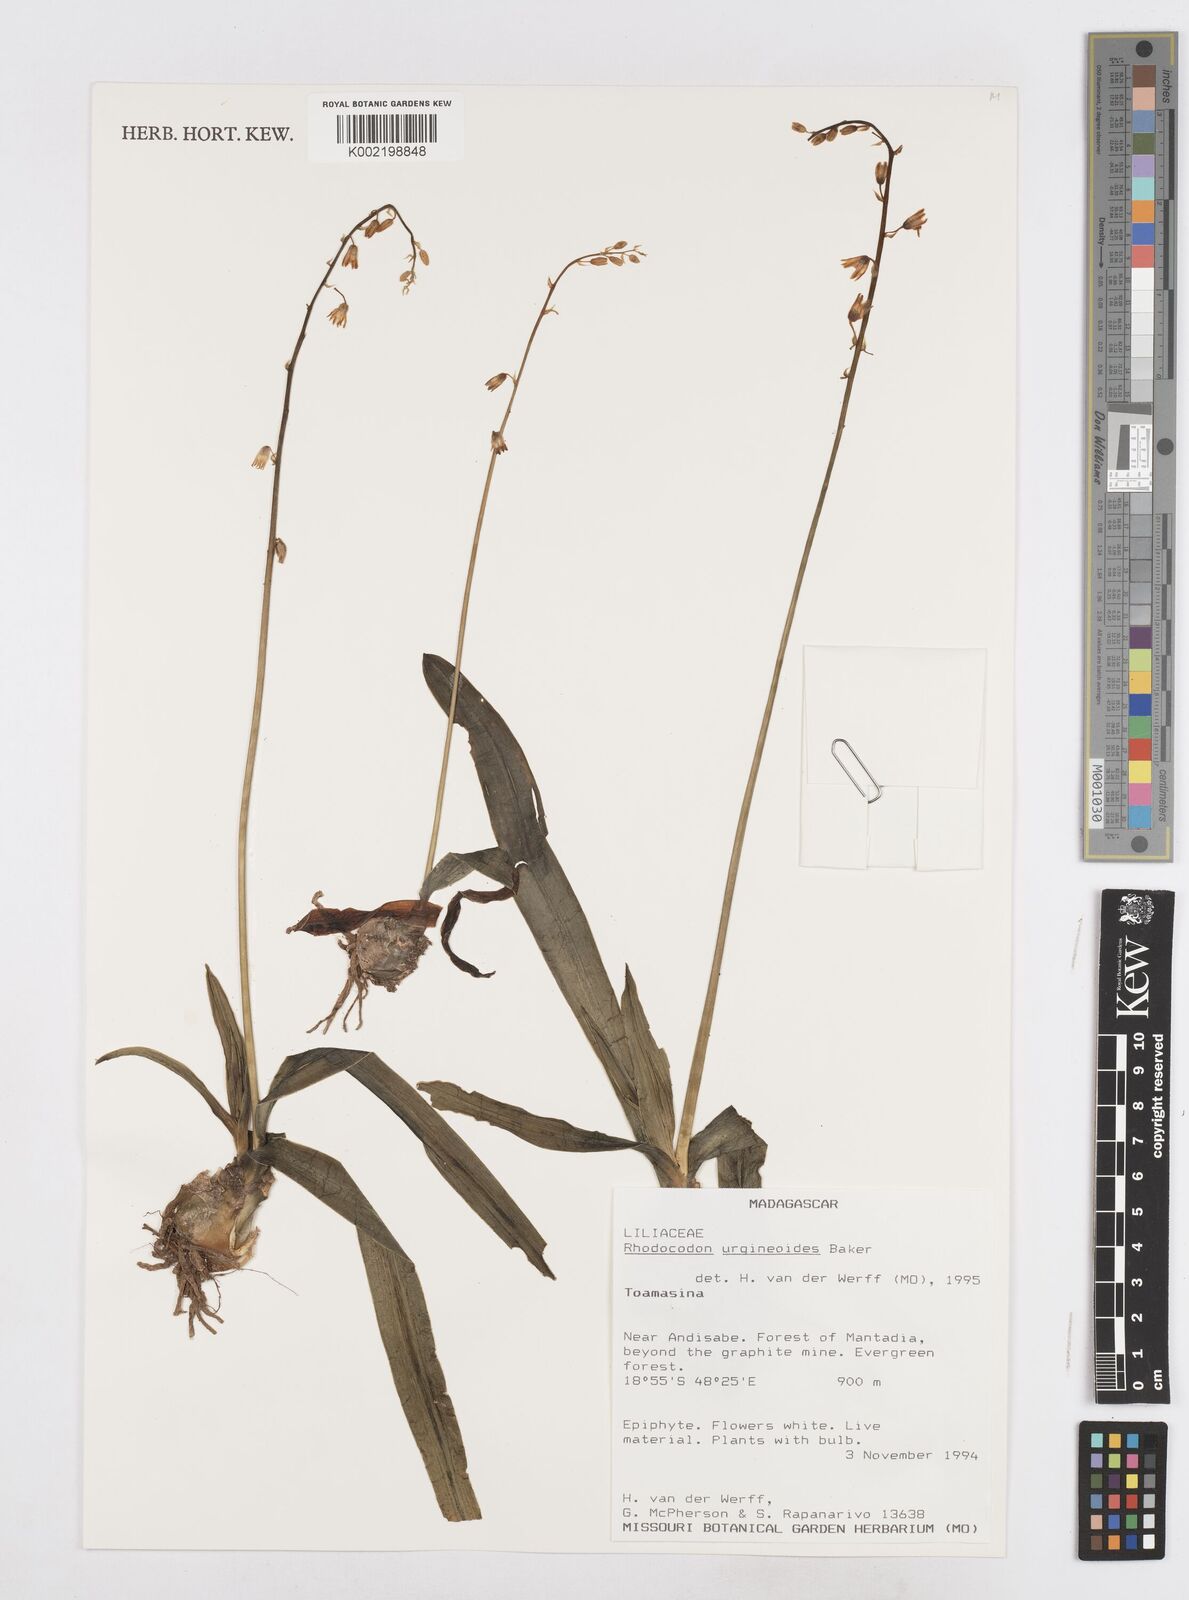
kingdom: Plantae
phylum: Tracheophyta
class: Liliopsida
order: Asparagales
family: Asparagaceae
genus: Drimia
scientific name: Drimia urgineoides
